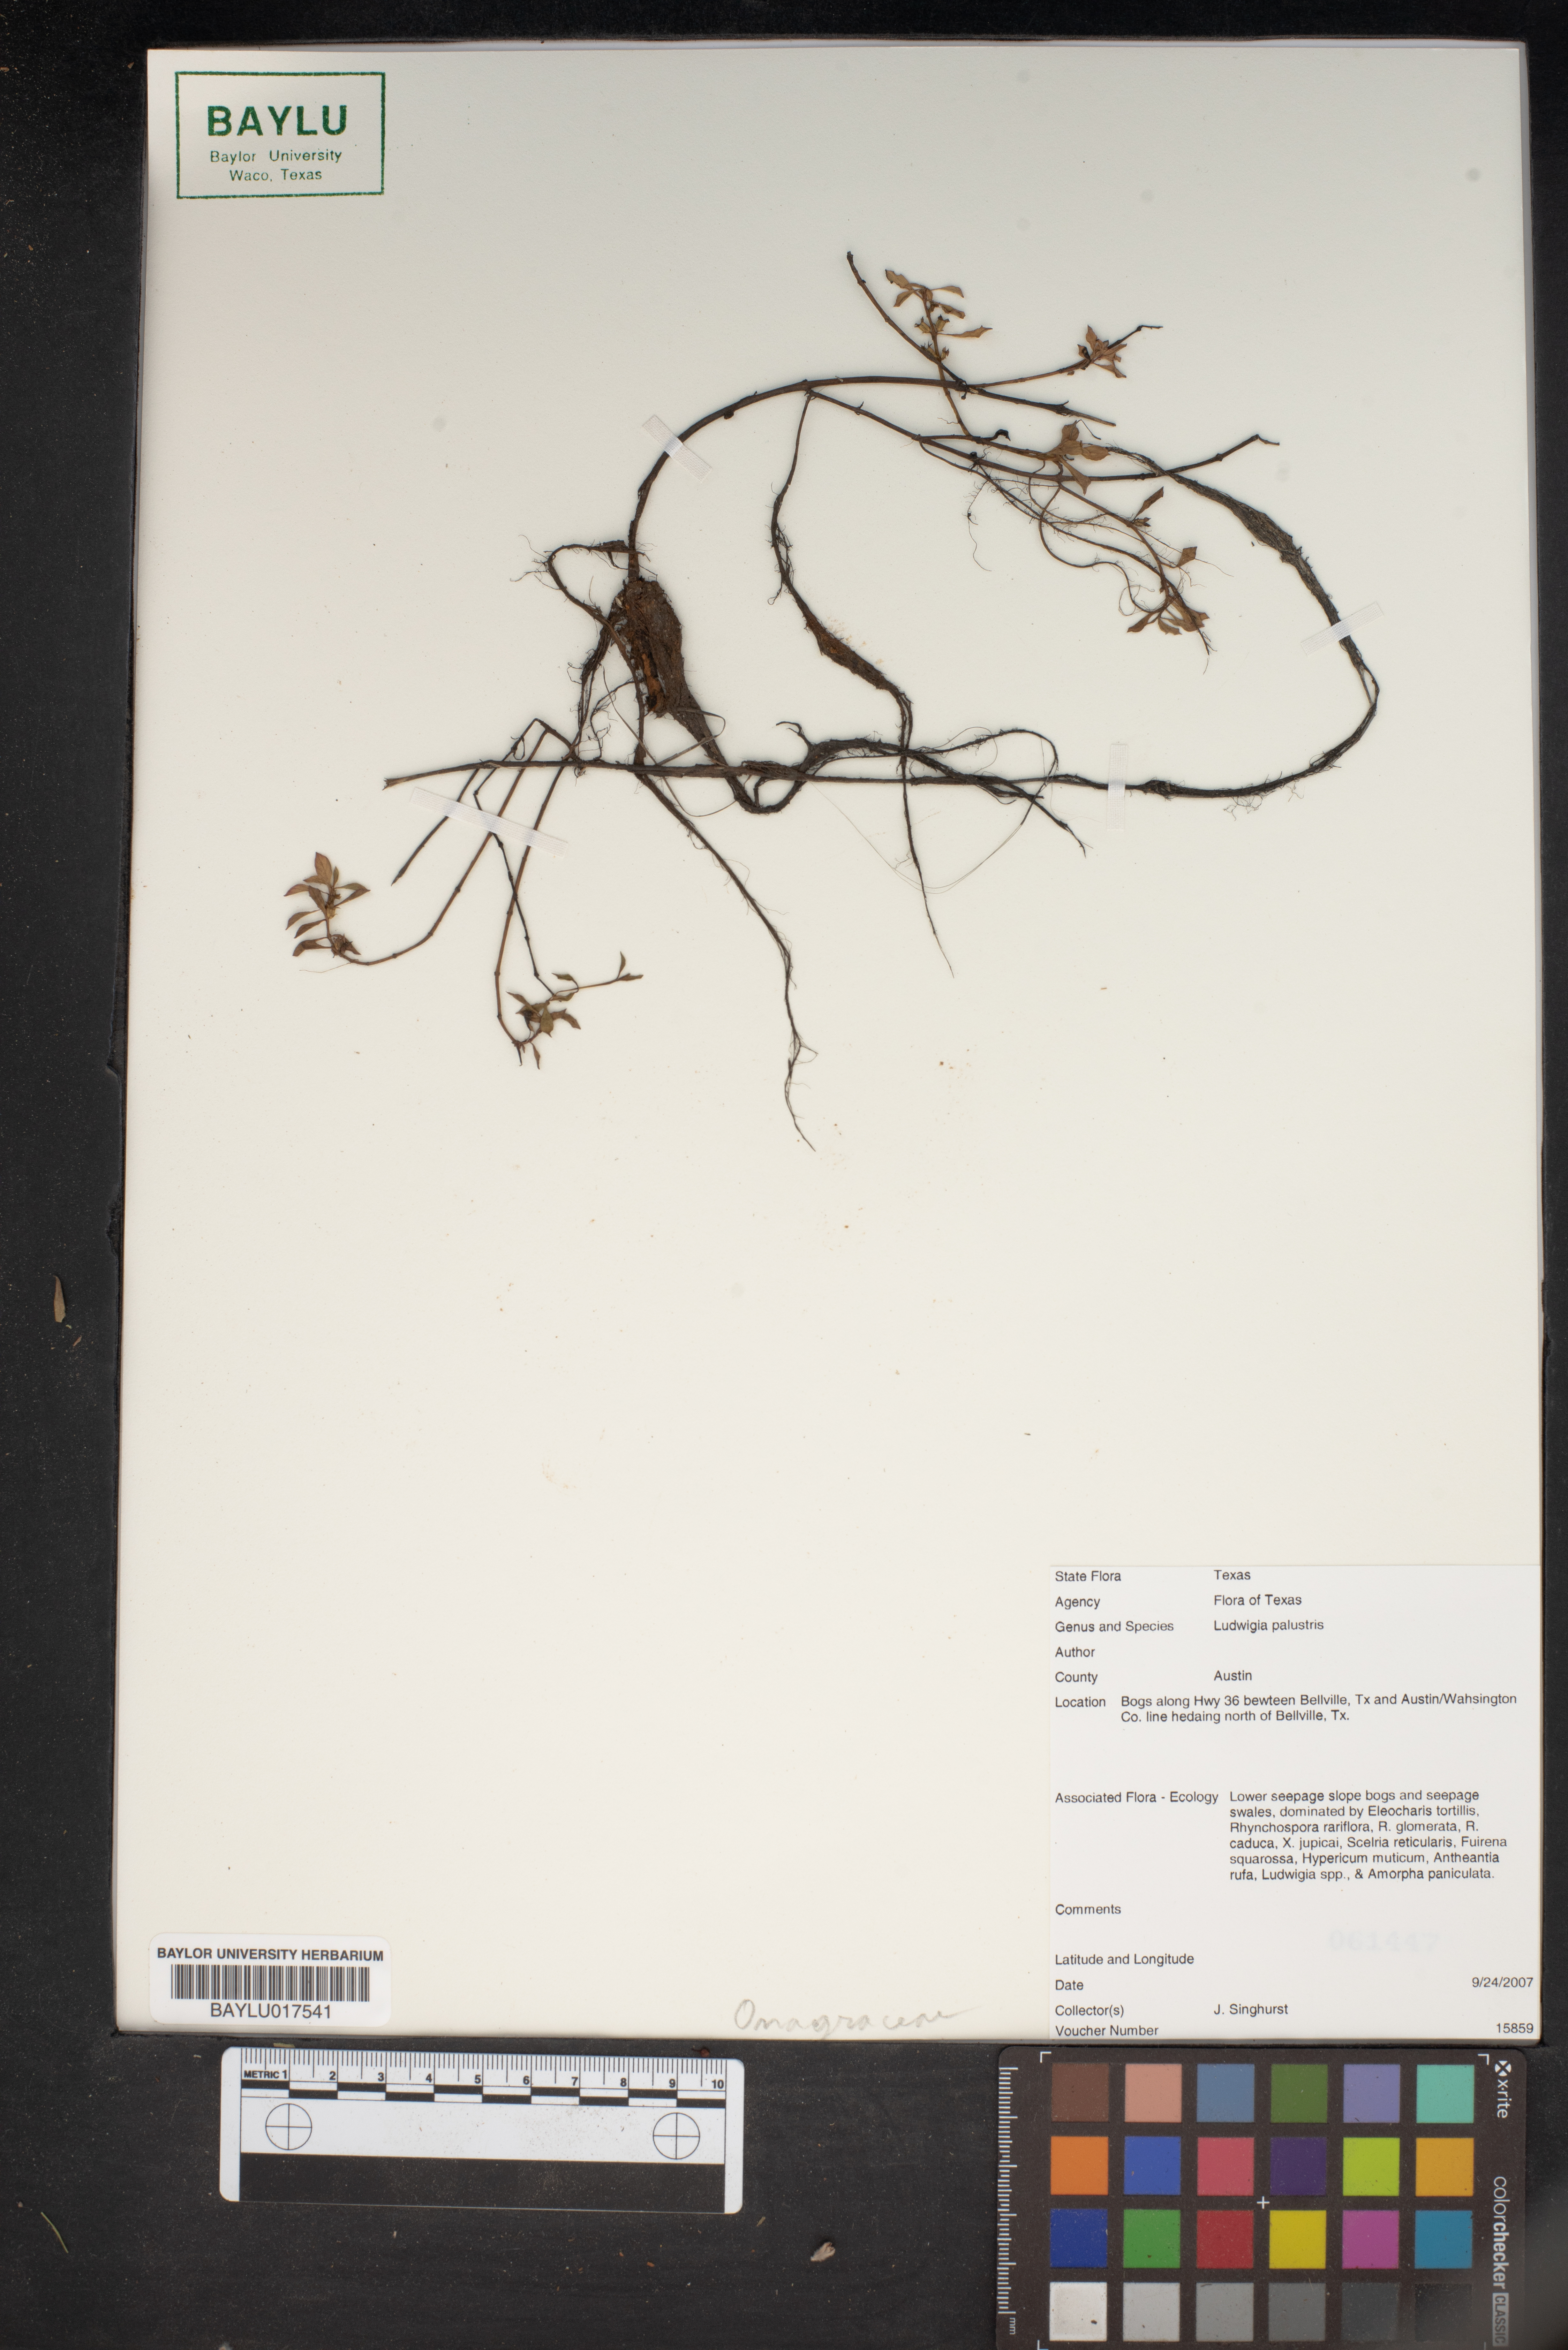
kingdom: Plantae
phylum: Tracheophyta
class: Magnoliopsida
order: Myrtales
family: Onagraceae
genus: Ludwigia
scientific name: Ludwigia palustris
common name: Hampshire-purslane
